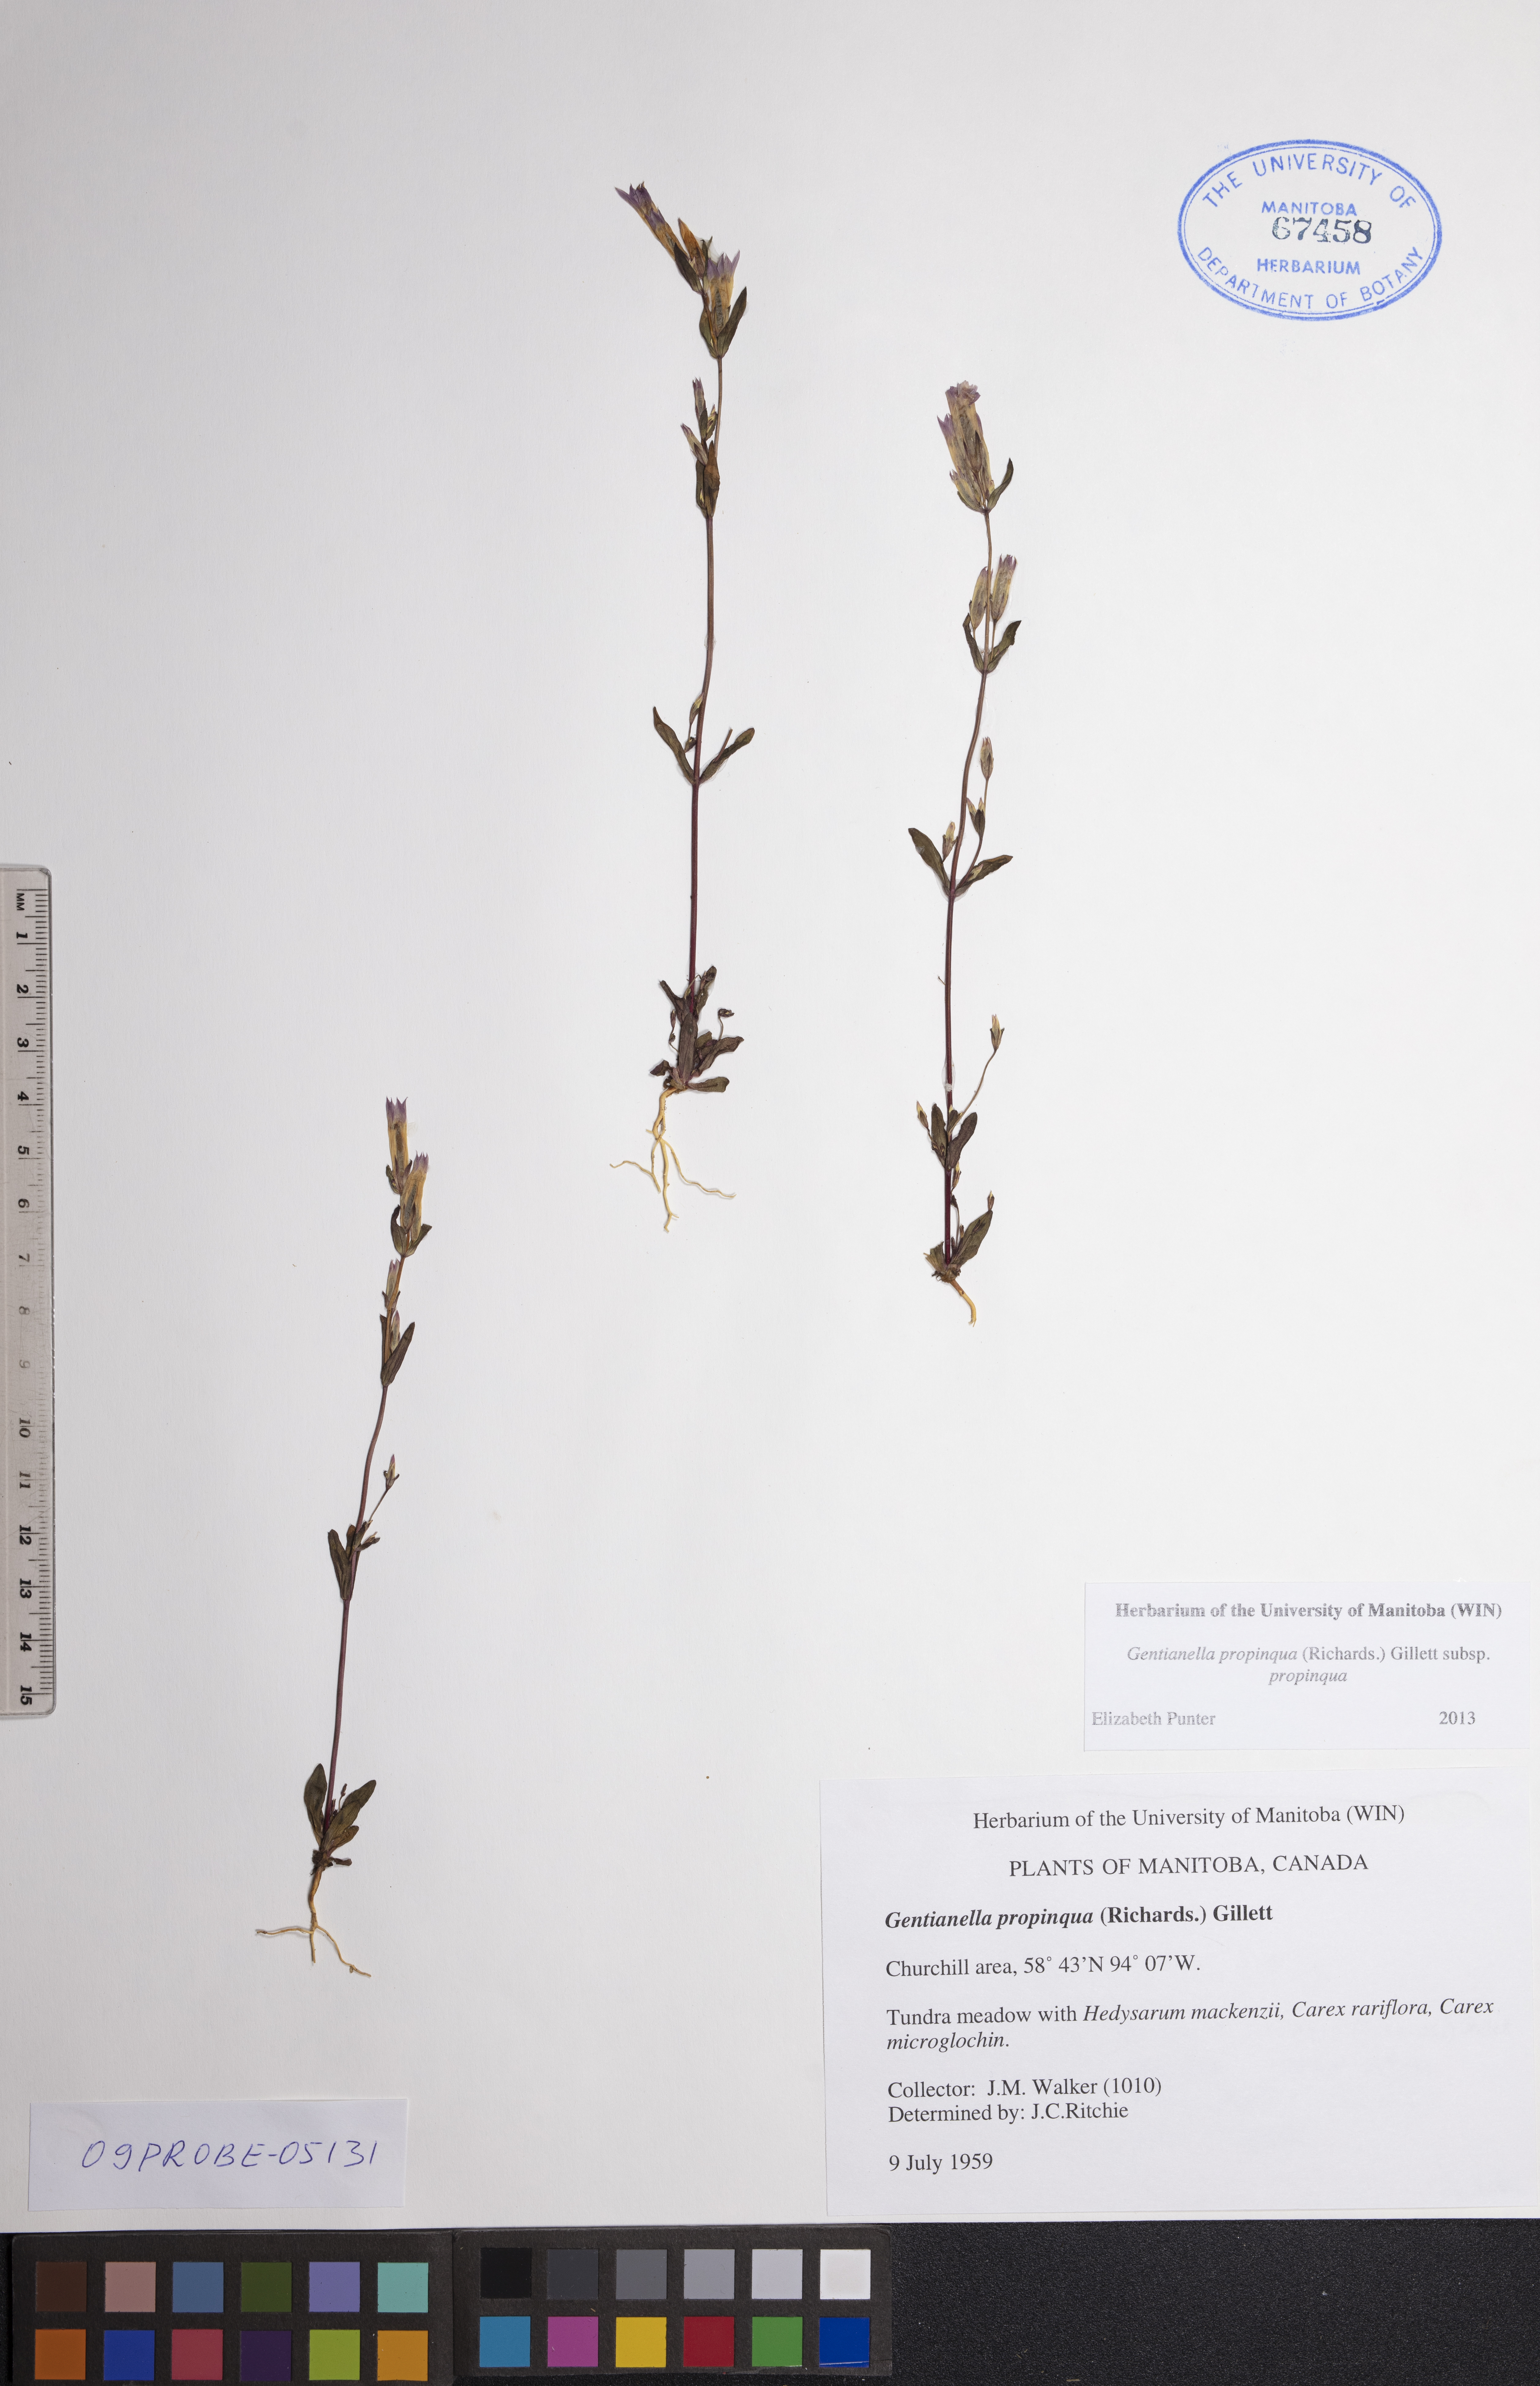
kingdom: Plantae
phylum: Tracheophyta
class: Magnoliopsida
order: Gentianales
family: Gentianaceae
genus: Gentianella
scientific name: Gentianella propinqua
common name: Four-parted dwarf-gentian
